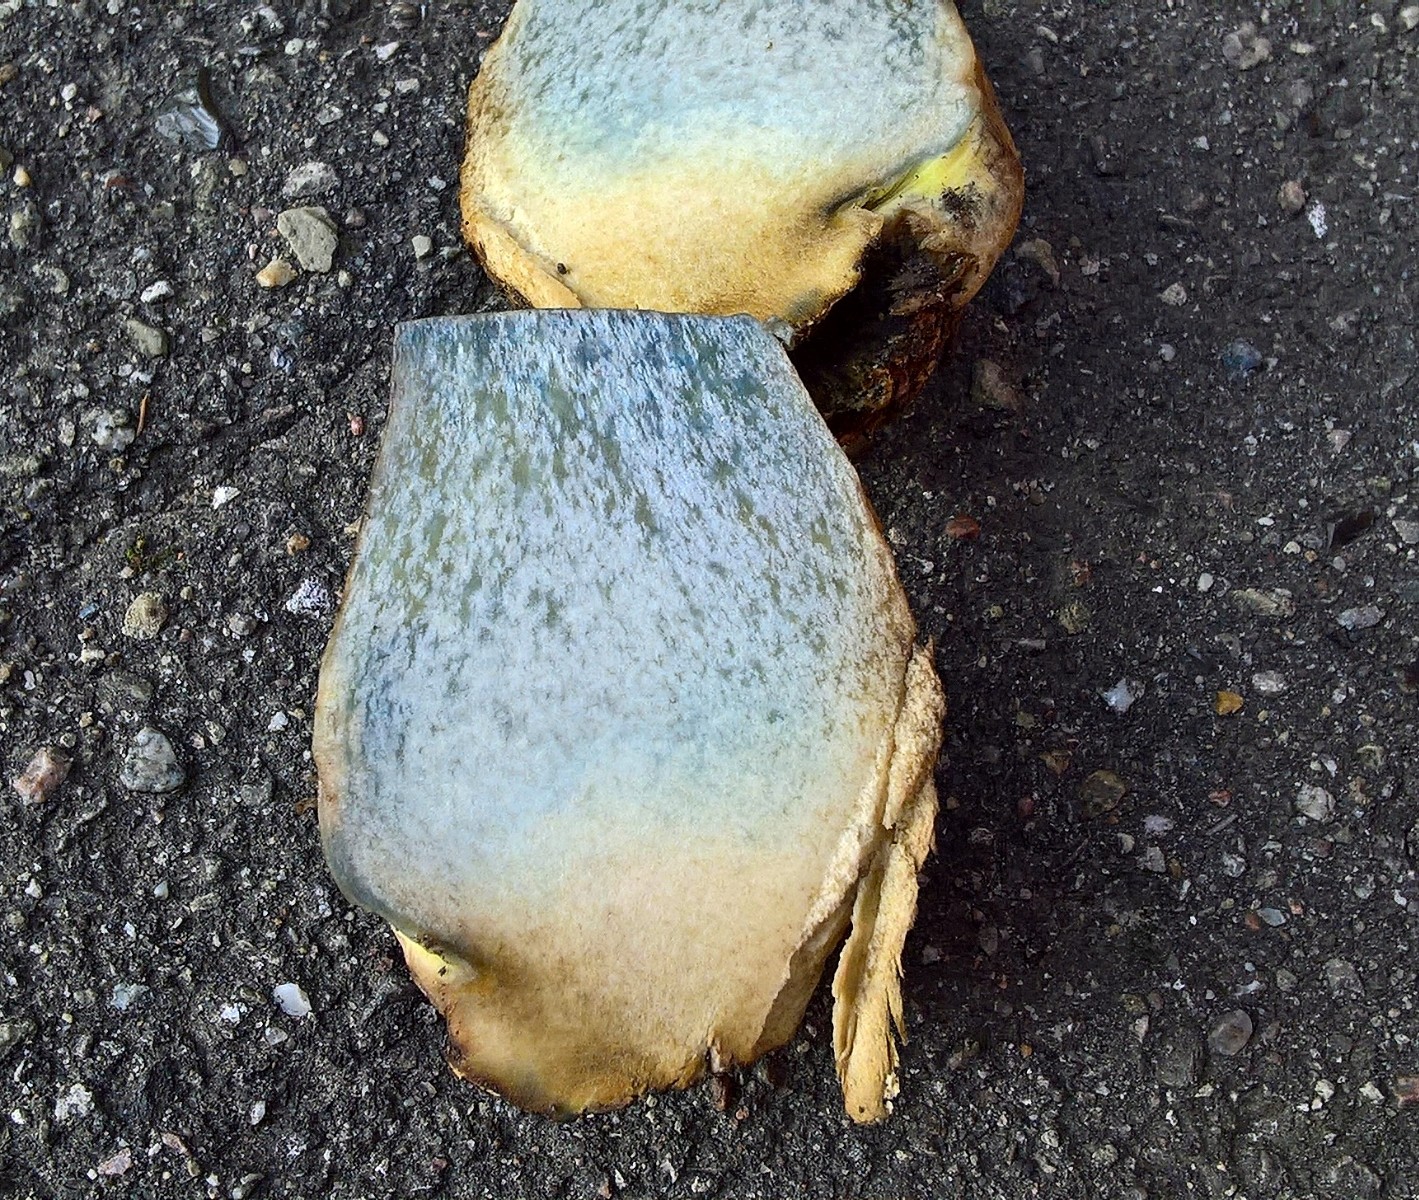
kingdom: Fungi
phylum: Basidiomycota
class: Agaricomycetes
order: Boletales
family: Boletaceae
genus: Suillellus
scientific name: Suillellus luridus
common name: netstokket indigorørhat
